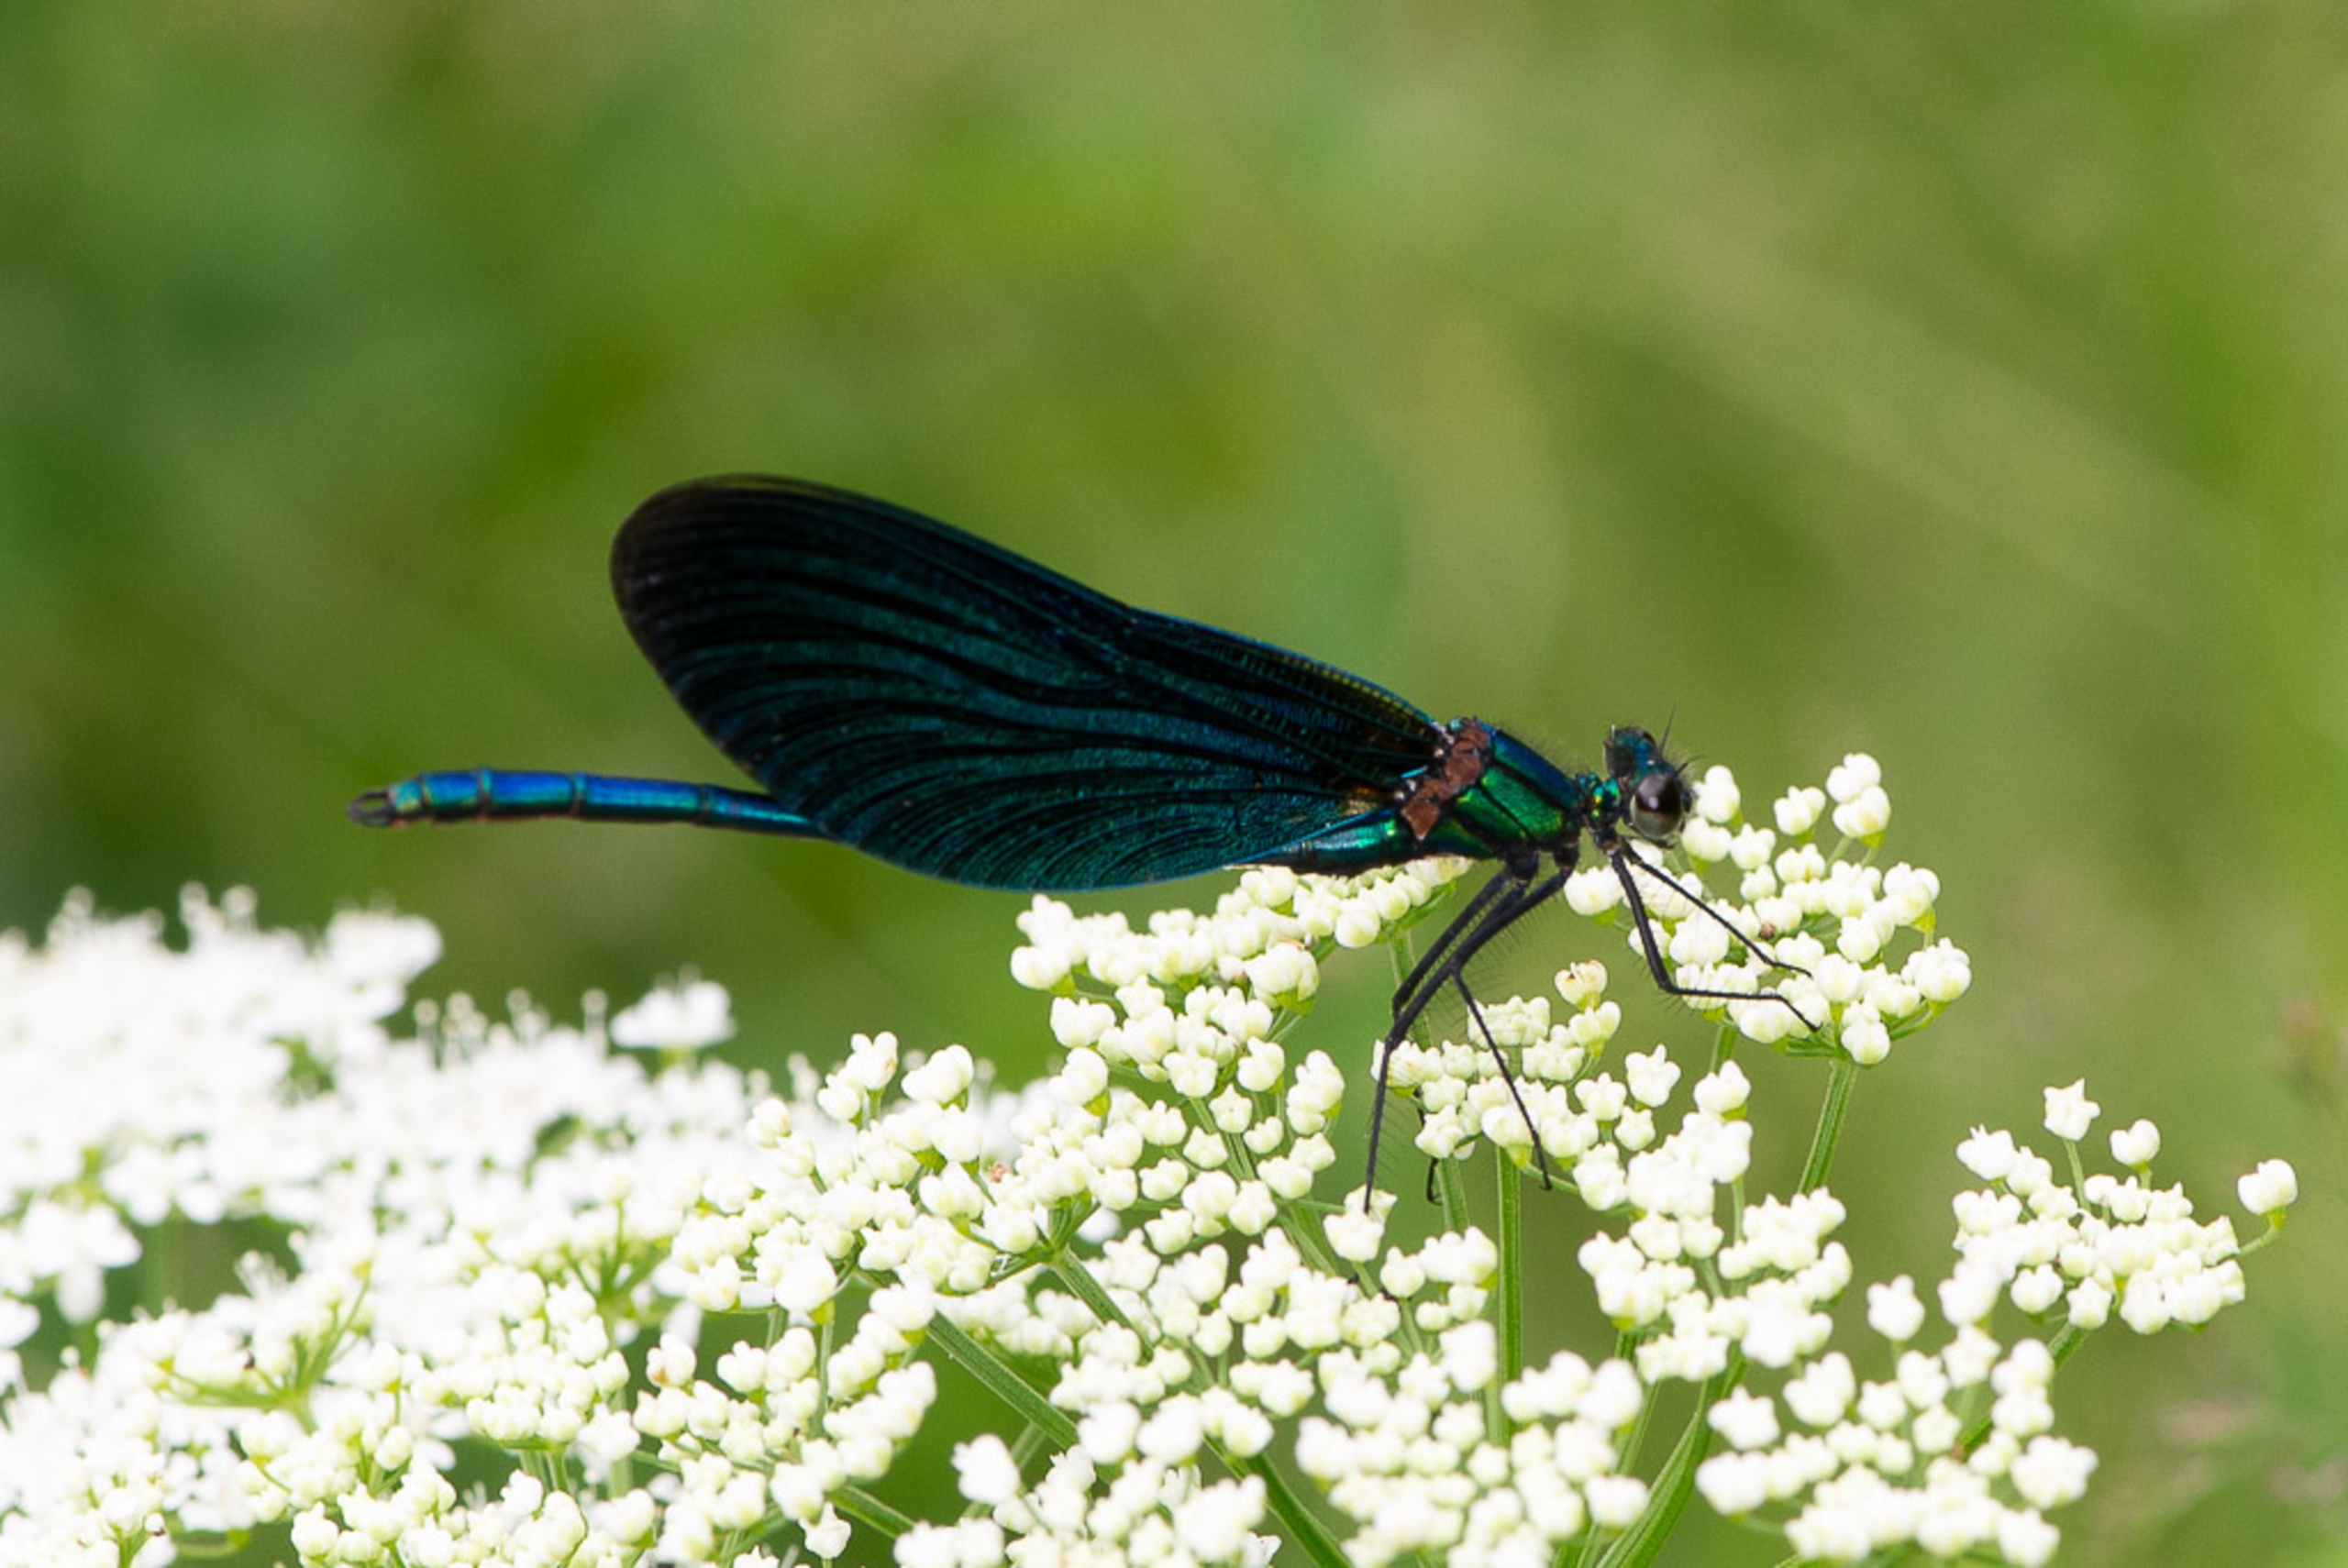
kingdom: Animalia
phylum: Arthropoda
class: Insecta
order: Odonata
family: Calopterygidae
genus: Calopteryx
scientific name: Calopteryx virgo
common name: Blåvinget pragtvandnymfe
